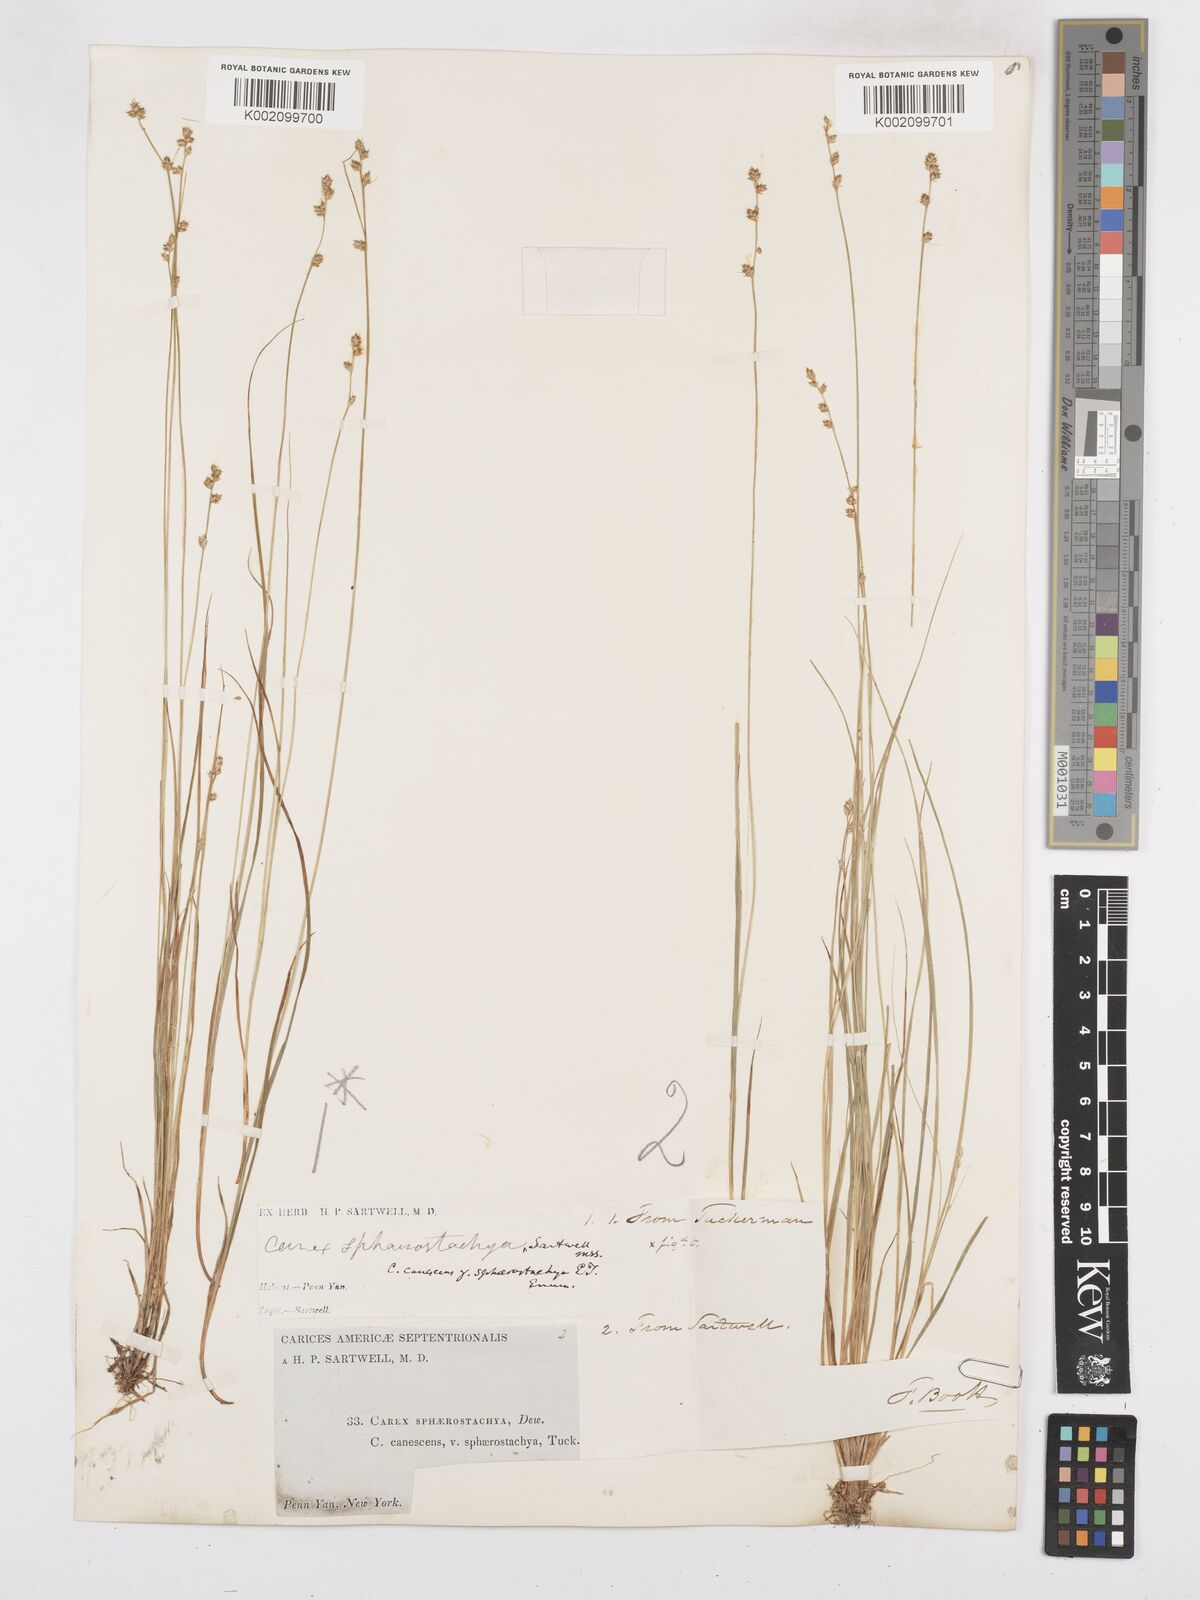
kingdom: Plantae
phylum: Tracheophyta
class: Liliopsida
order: Poales
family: Cyperaceae
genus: Carex
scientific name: Carex brunnescens
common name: Brown sedge
